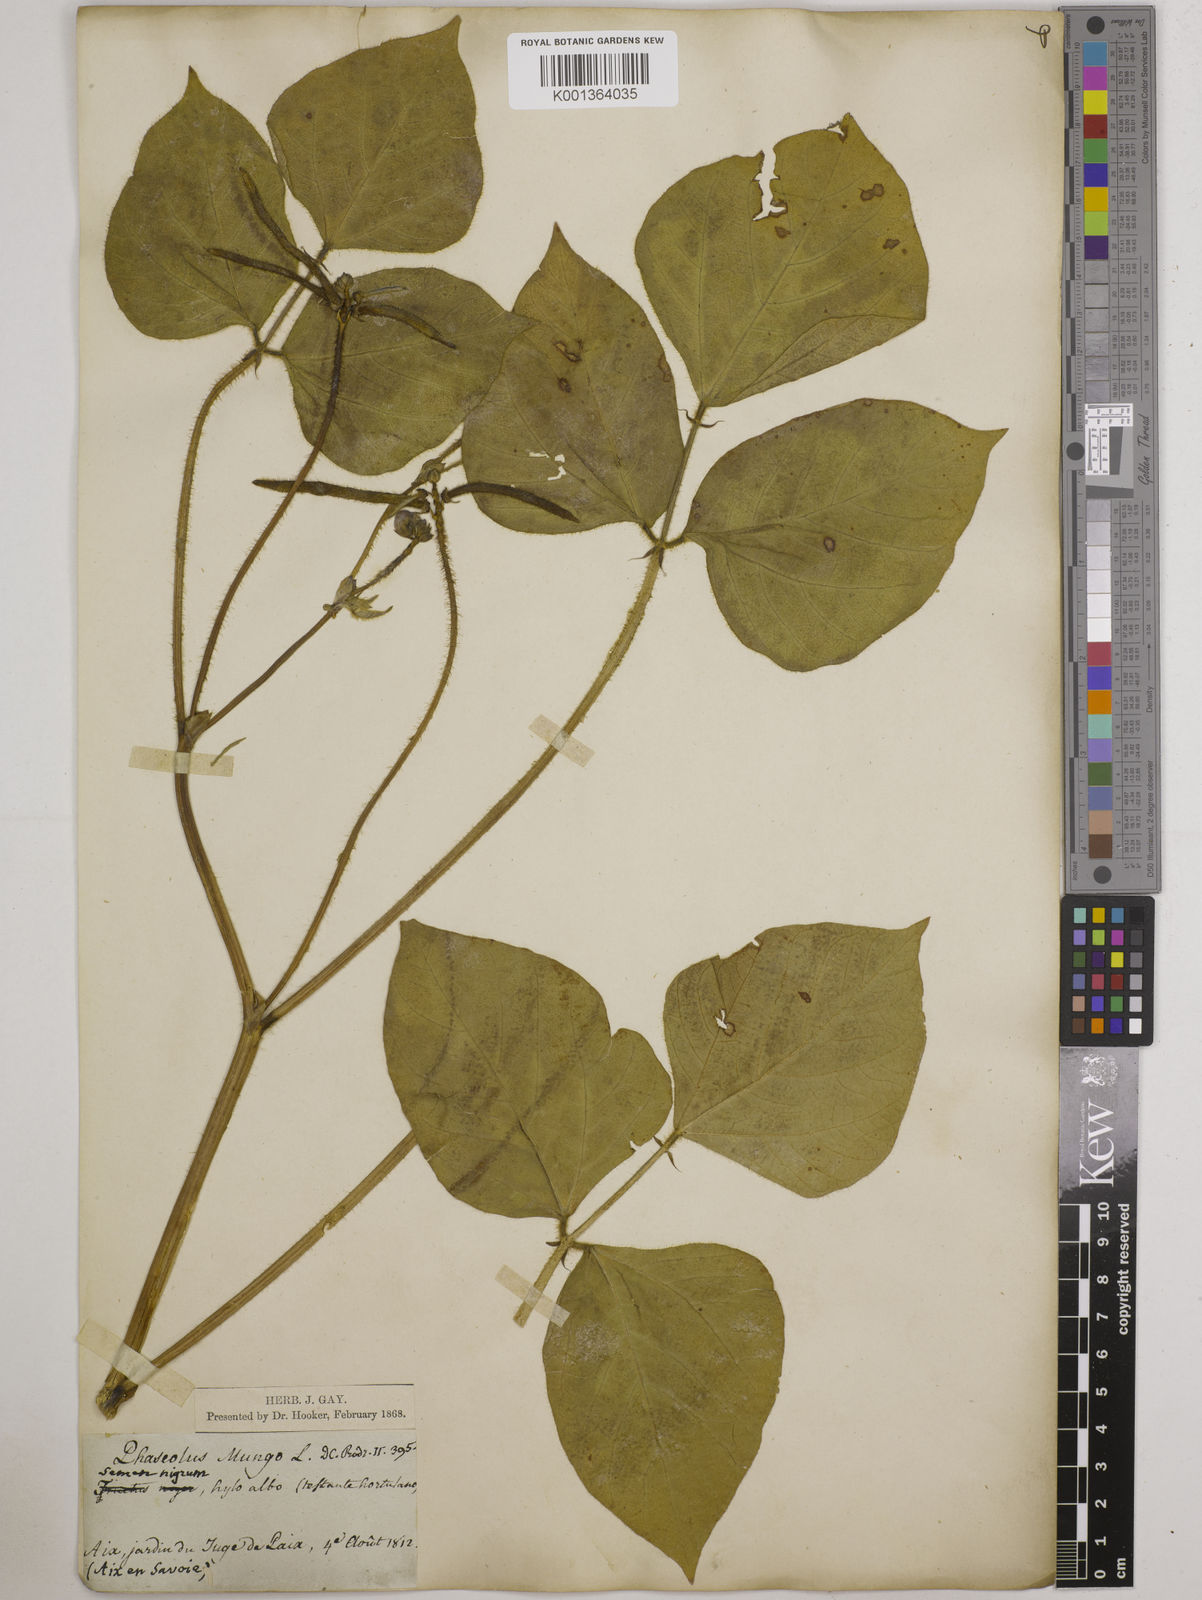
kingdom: Plantae
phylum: Tracheophyta
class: Magnoliopsida
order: Fabales
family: Fabaceae
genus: Vigna
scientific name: Vigna radiata
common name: Mung-bean
